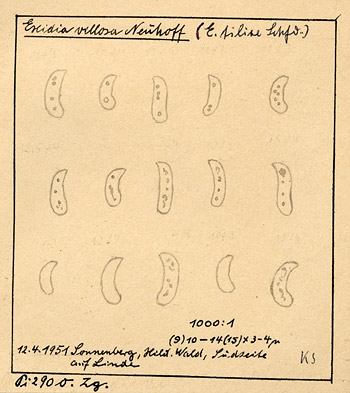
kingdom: Fungi
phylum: Basidiomycota
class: Agaricomycetes
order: Auriculariales
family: Auriculariaceae
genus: Exidia
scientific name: Exidia villosa
